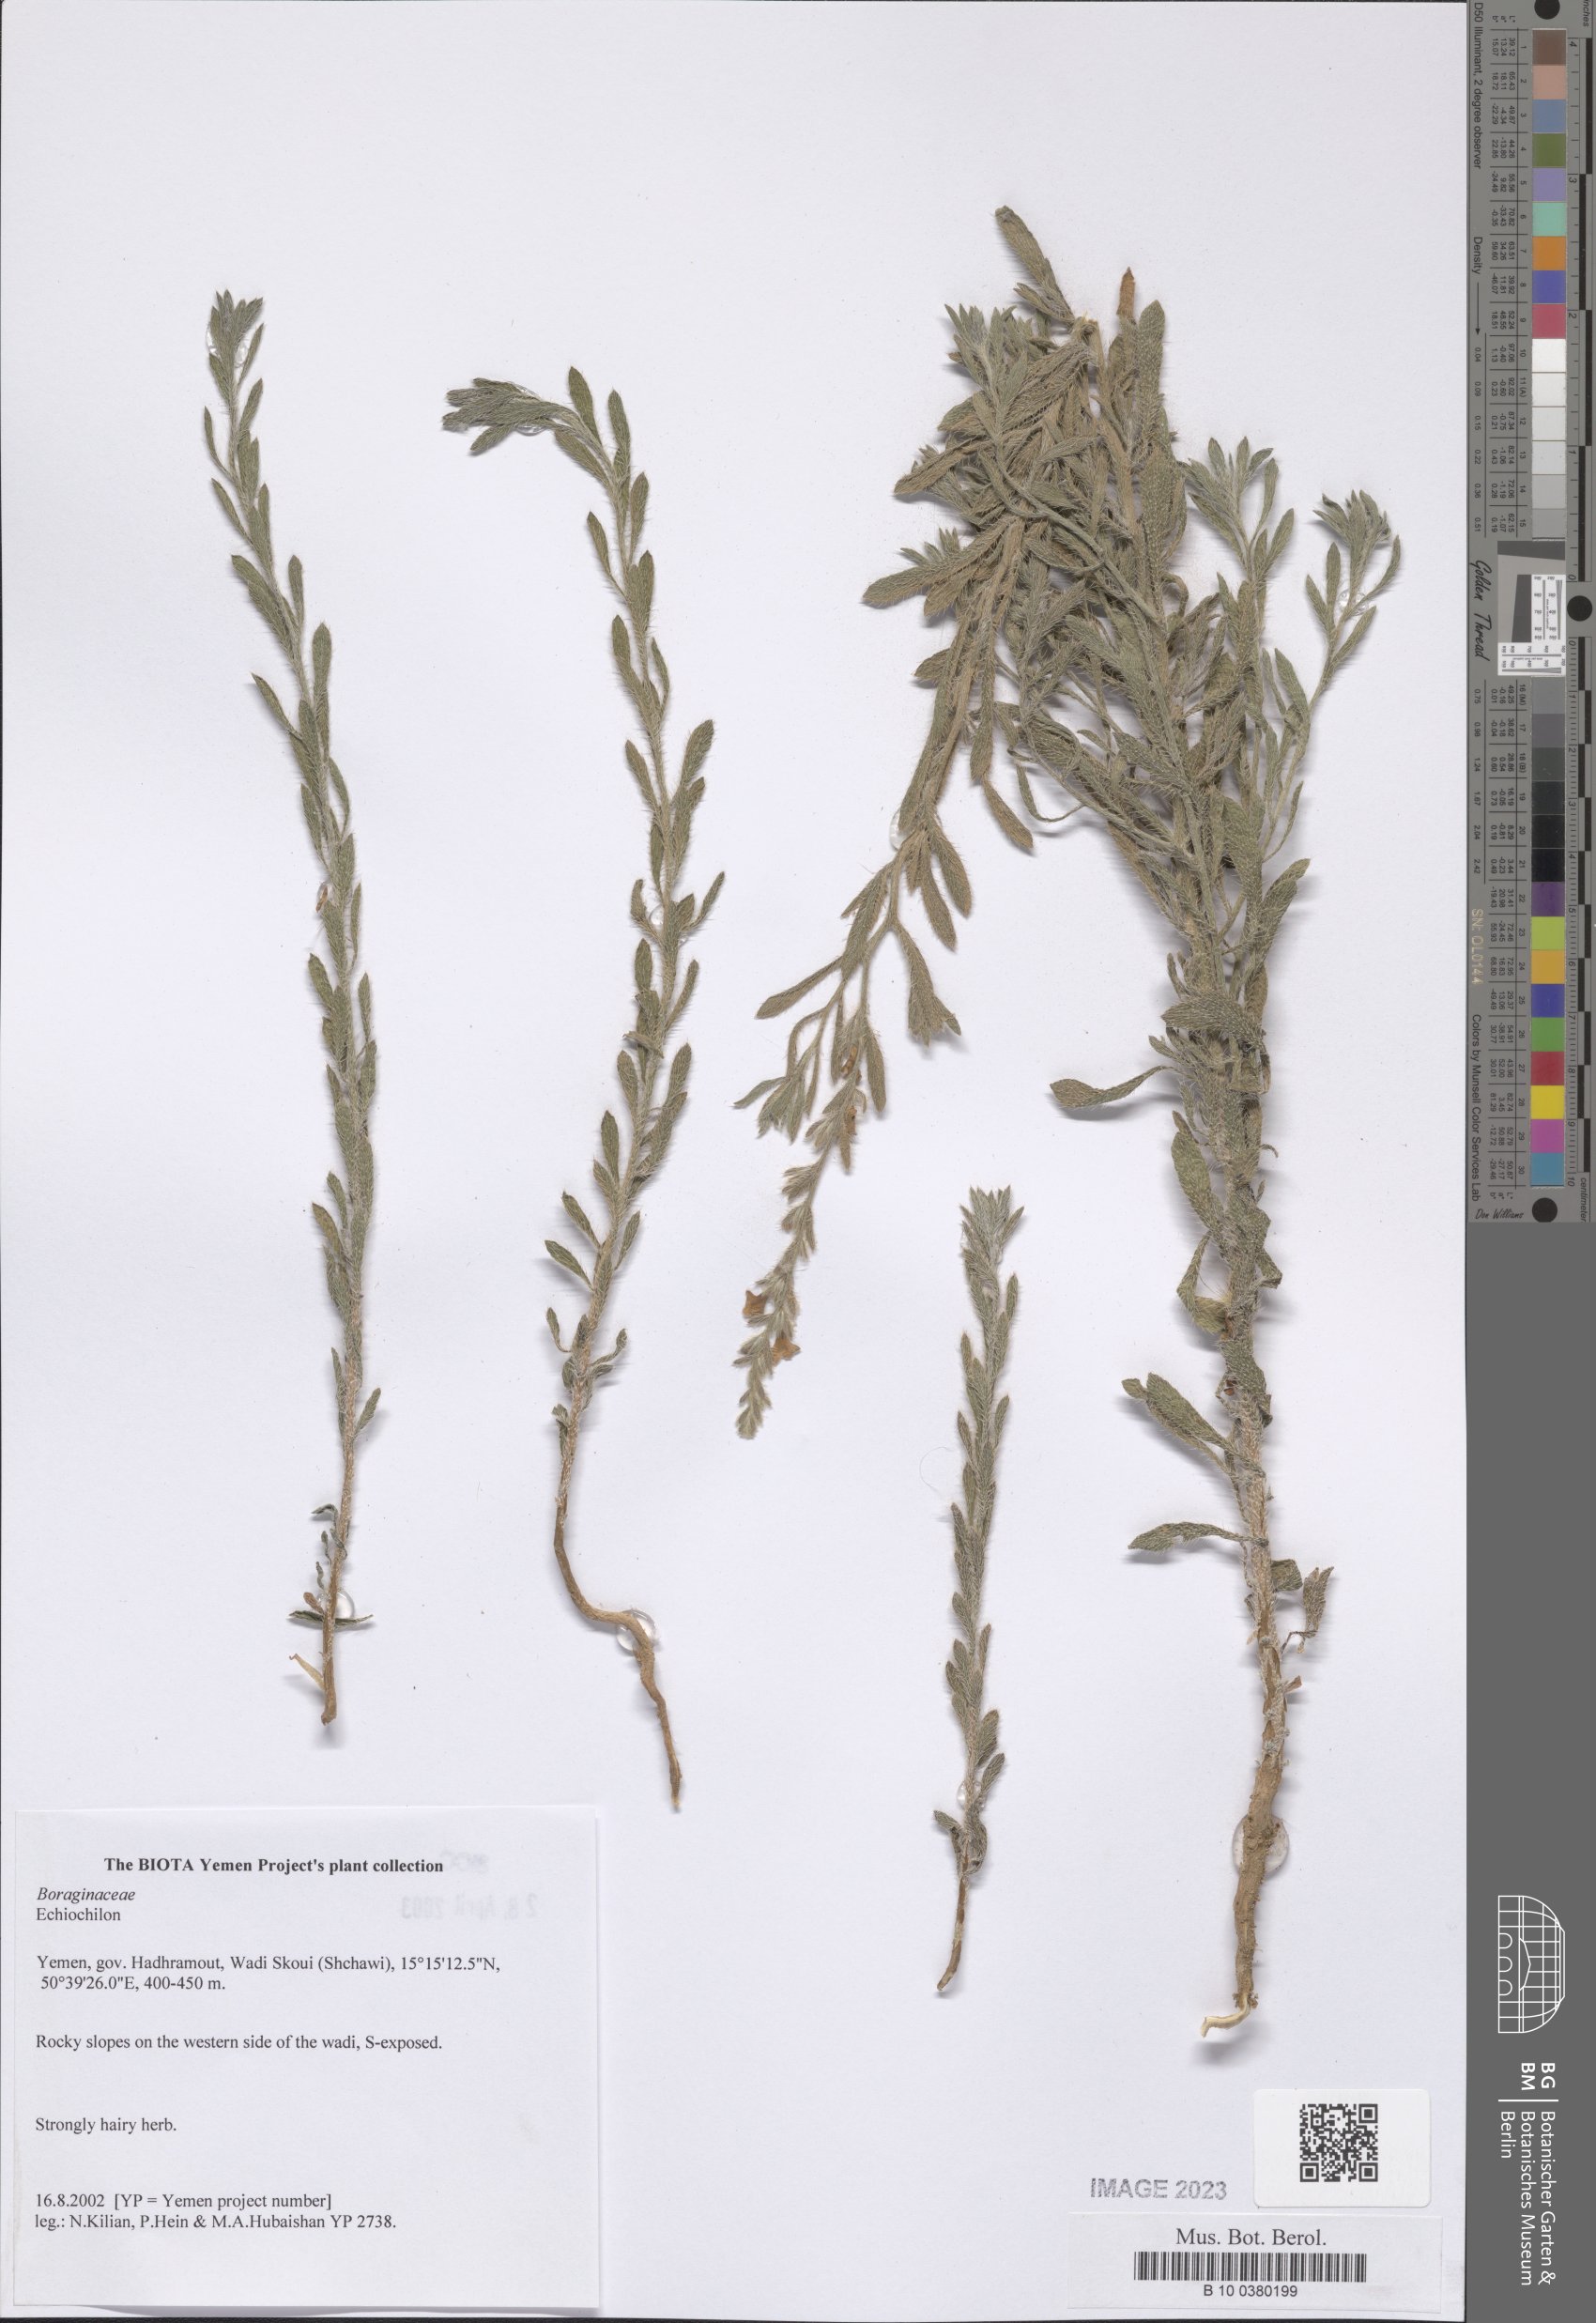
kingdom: Plantae
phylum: Tracheophyta
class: Magnoliopsida
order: Boraginales
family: Boraginaceae
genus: Echiochilon
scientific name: Echiochilon
